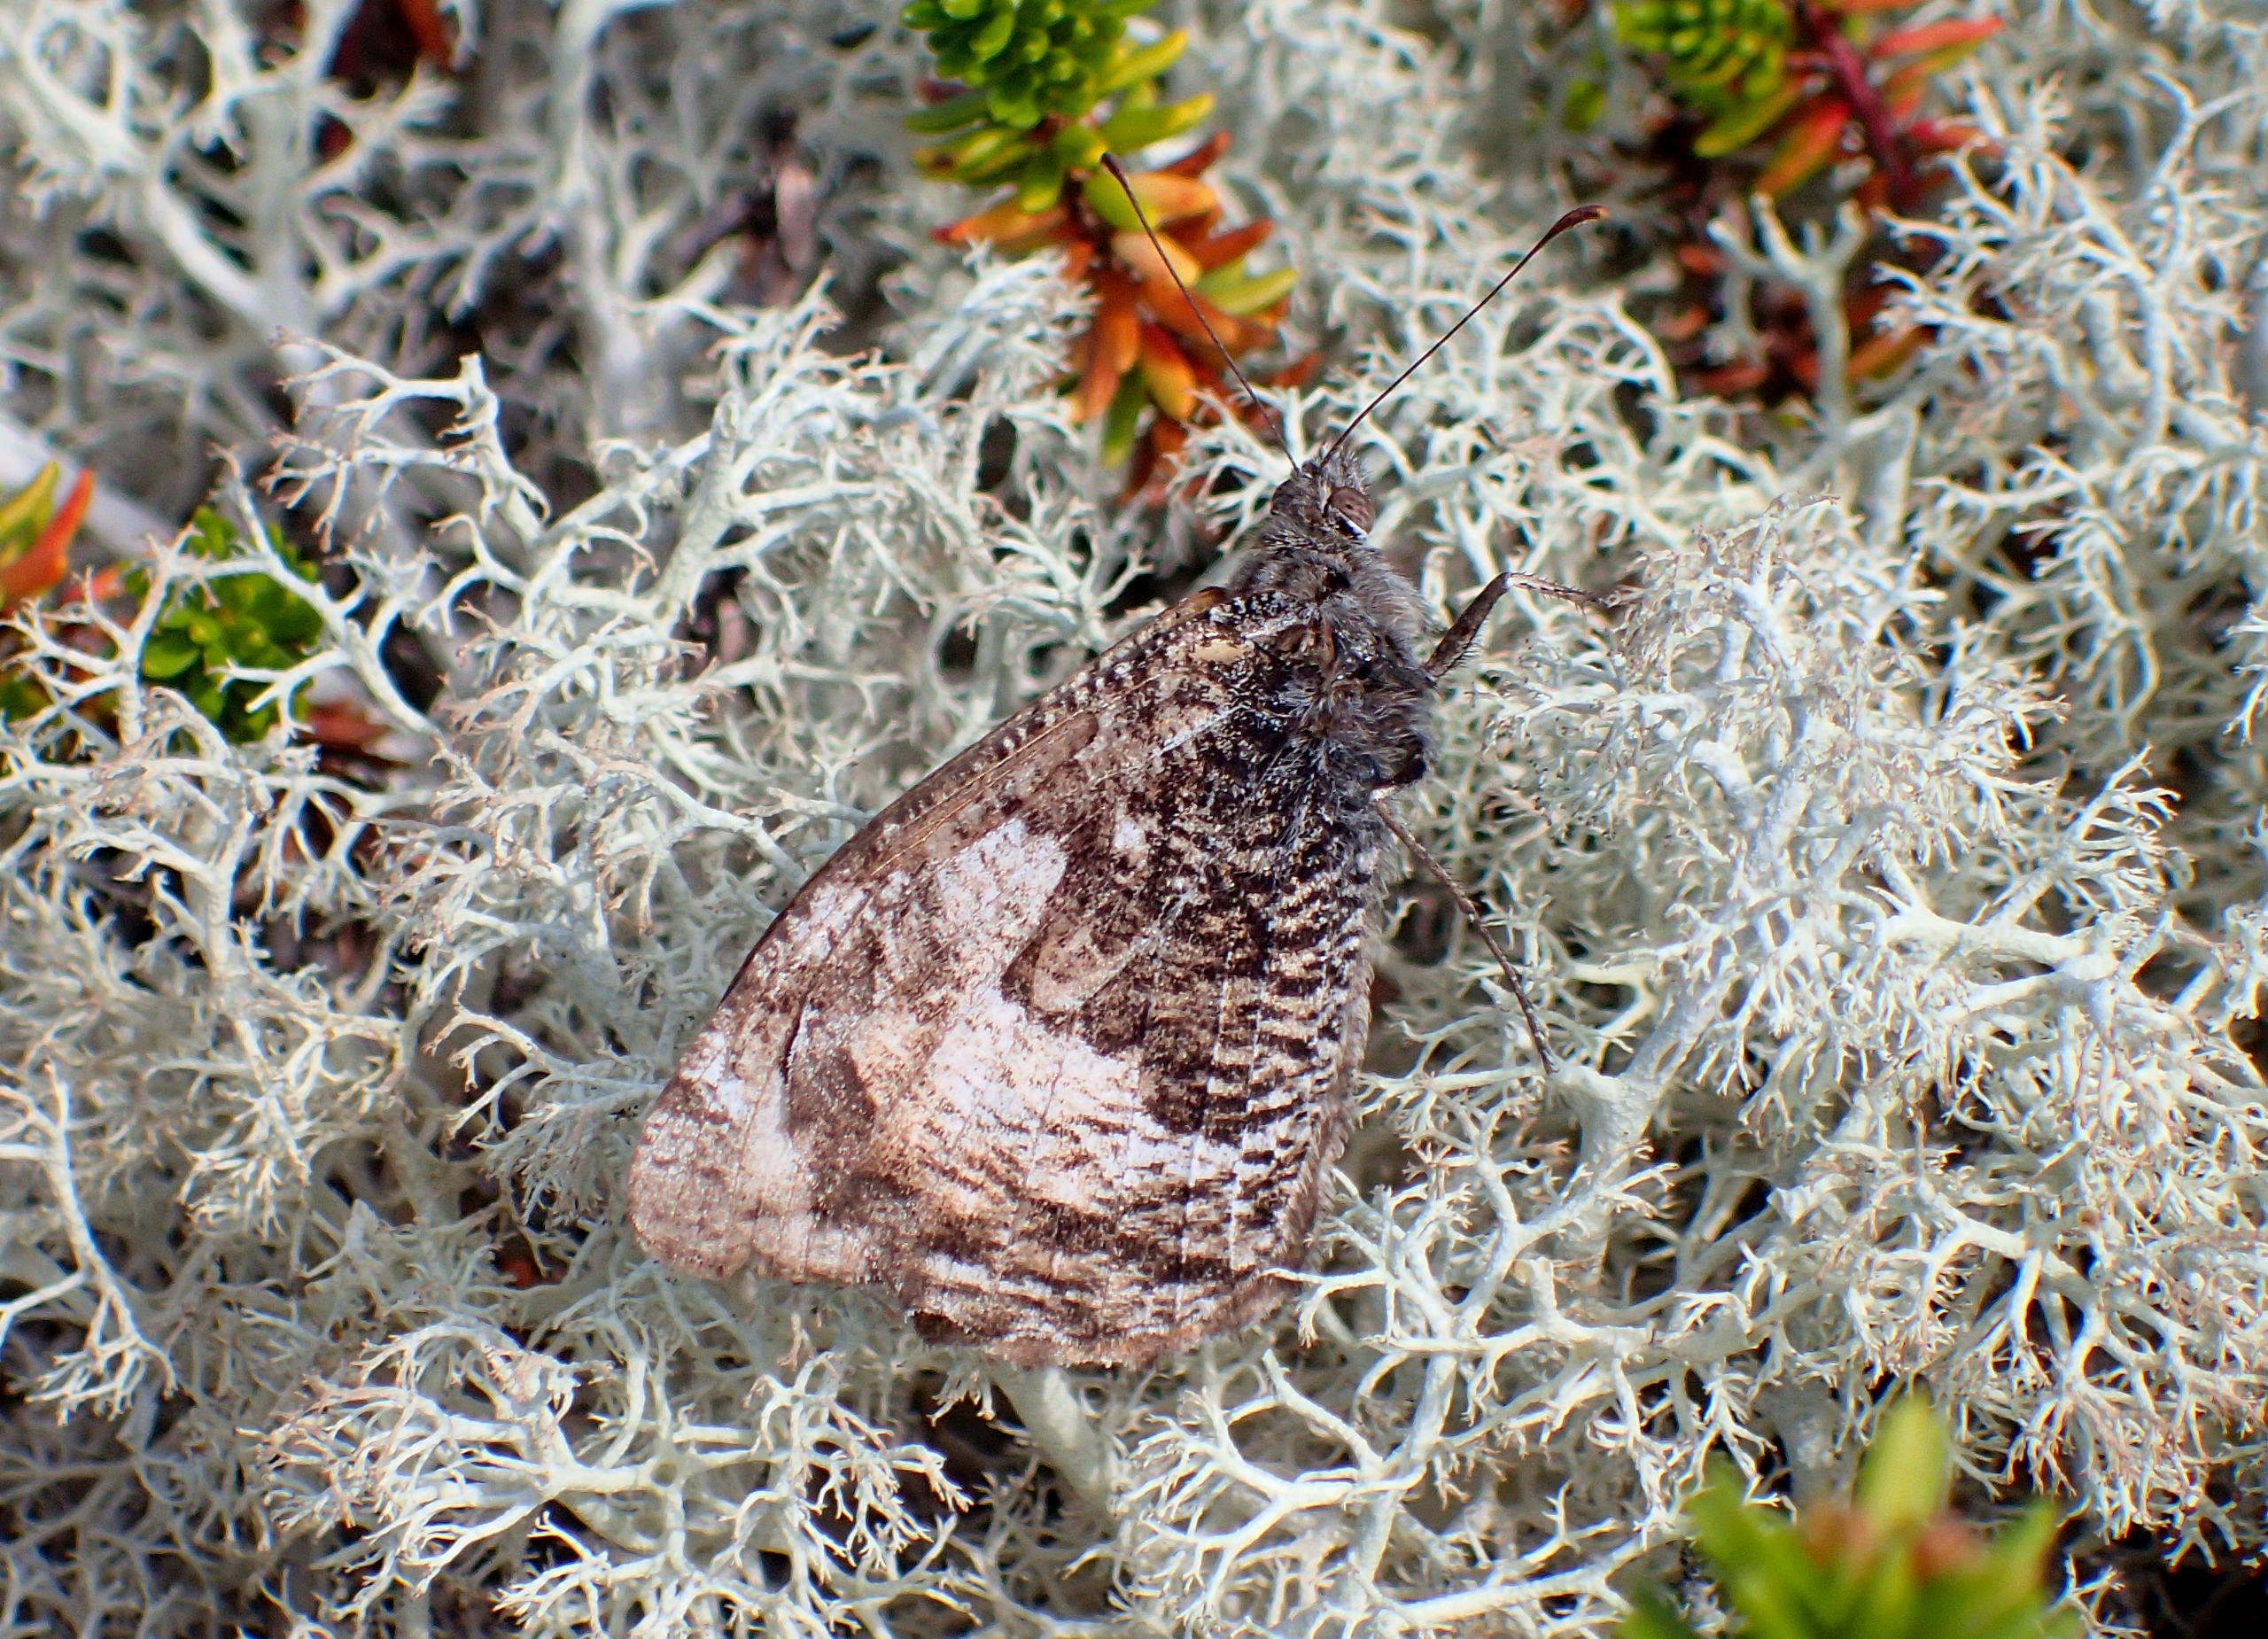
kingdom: Animalia
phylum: Arthropoda
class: Insecta
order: Lepidoptera
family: Nymphalidae
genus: Hipparchia
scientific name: Hipparchia semele
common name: Sandrandøje
